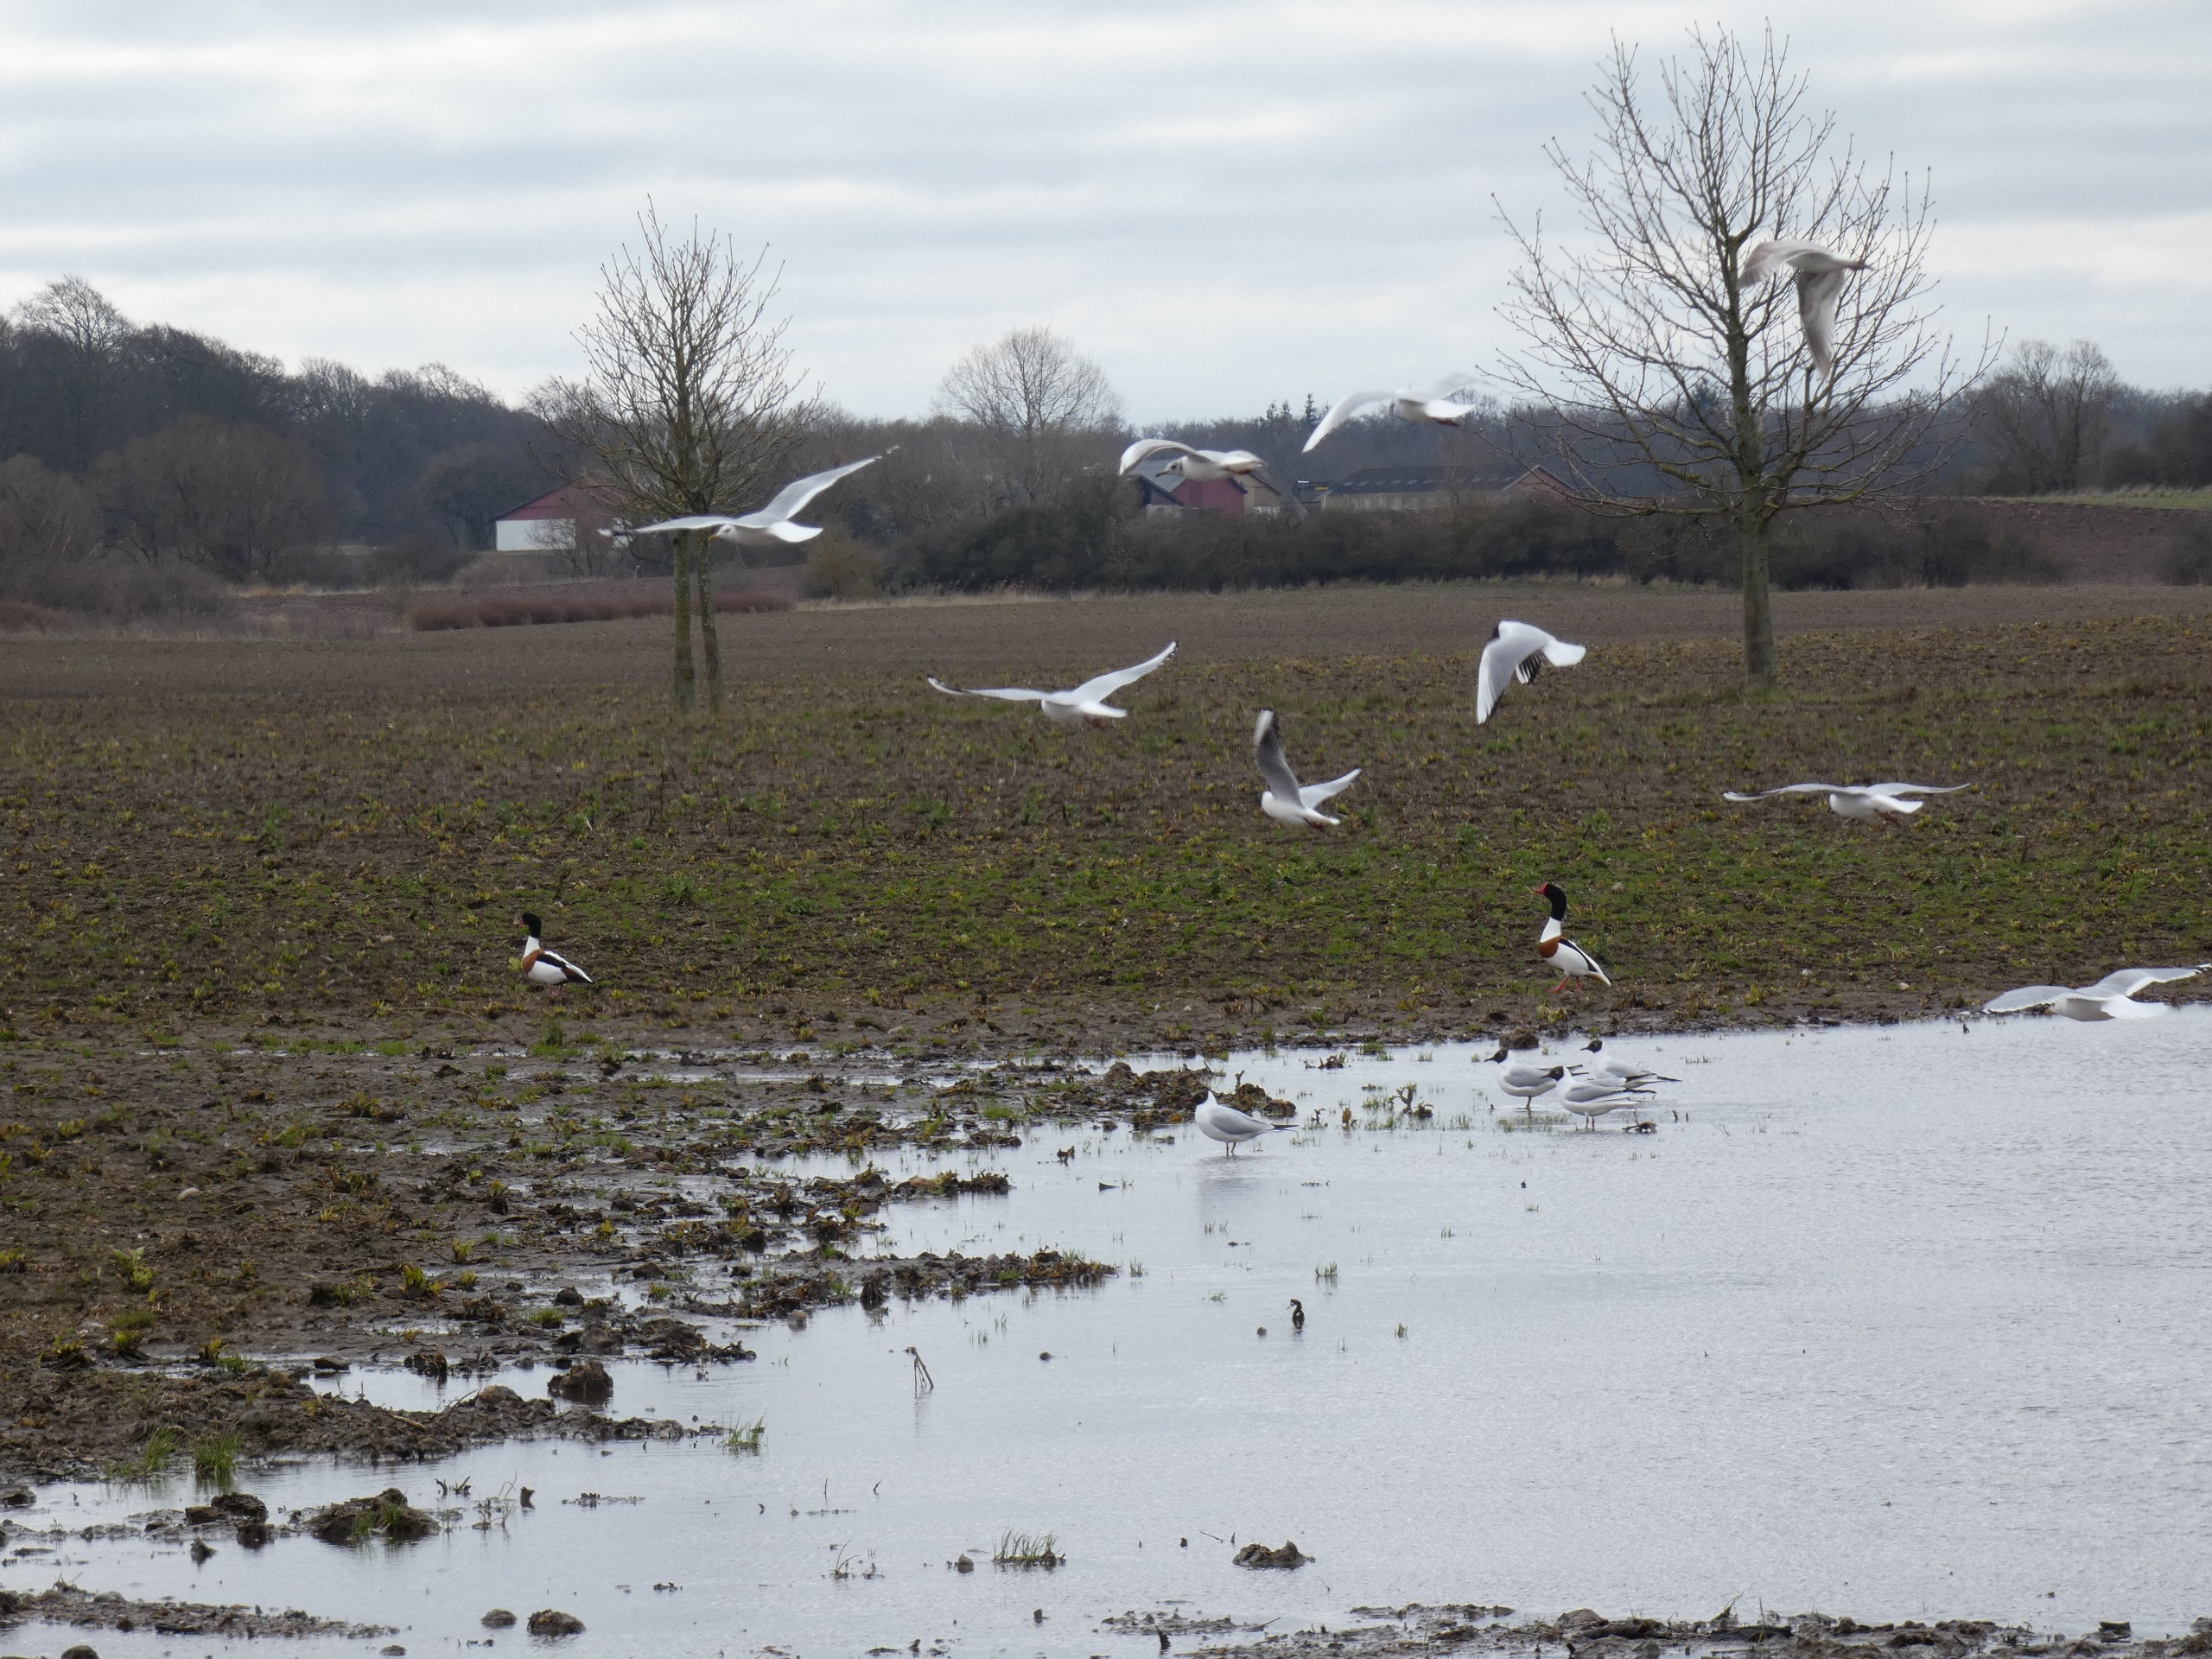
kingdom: Animalia
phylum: Chordata
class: Aves
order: Charadriiformes
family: Laridae
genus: Chroicocephalus
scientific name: Chroicocephalus ridibundus
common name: Hættemåge
